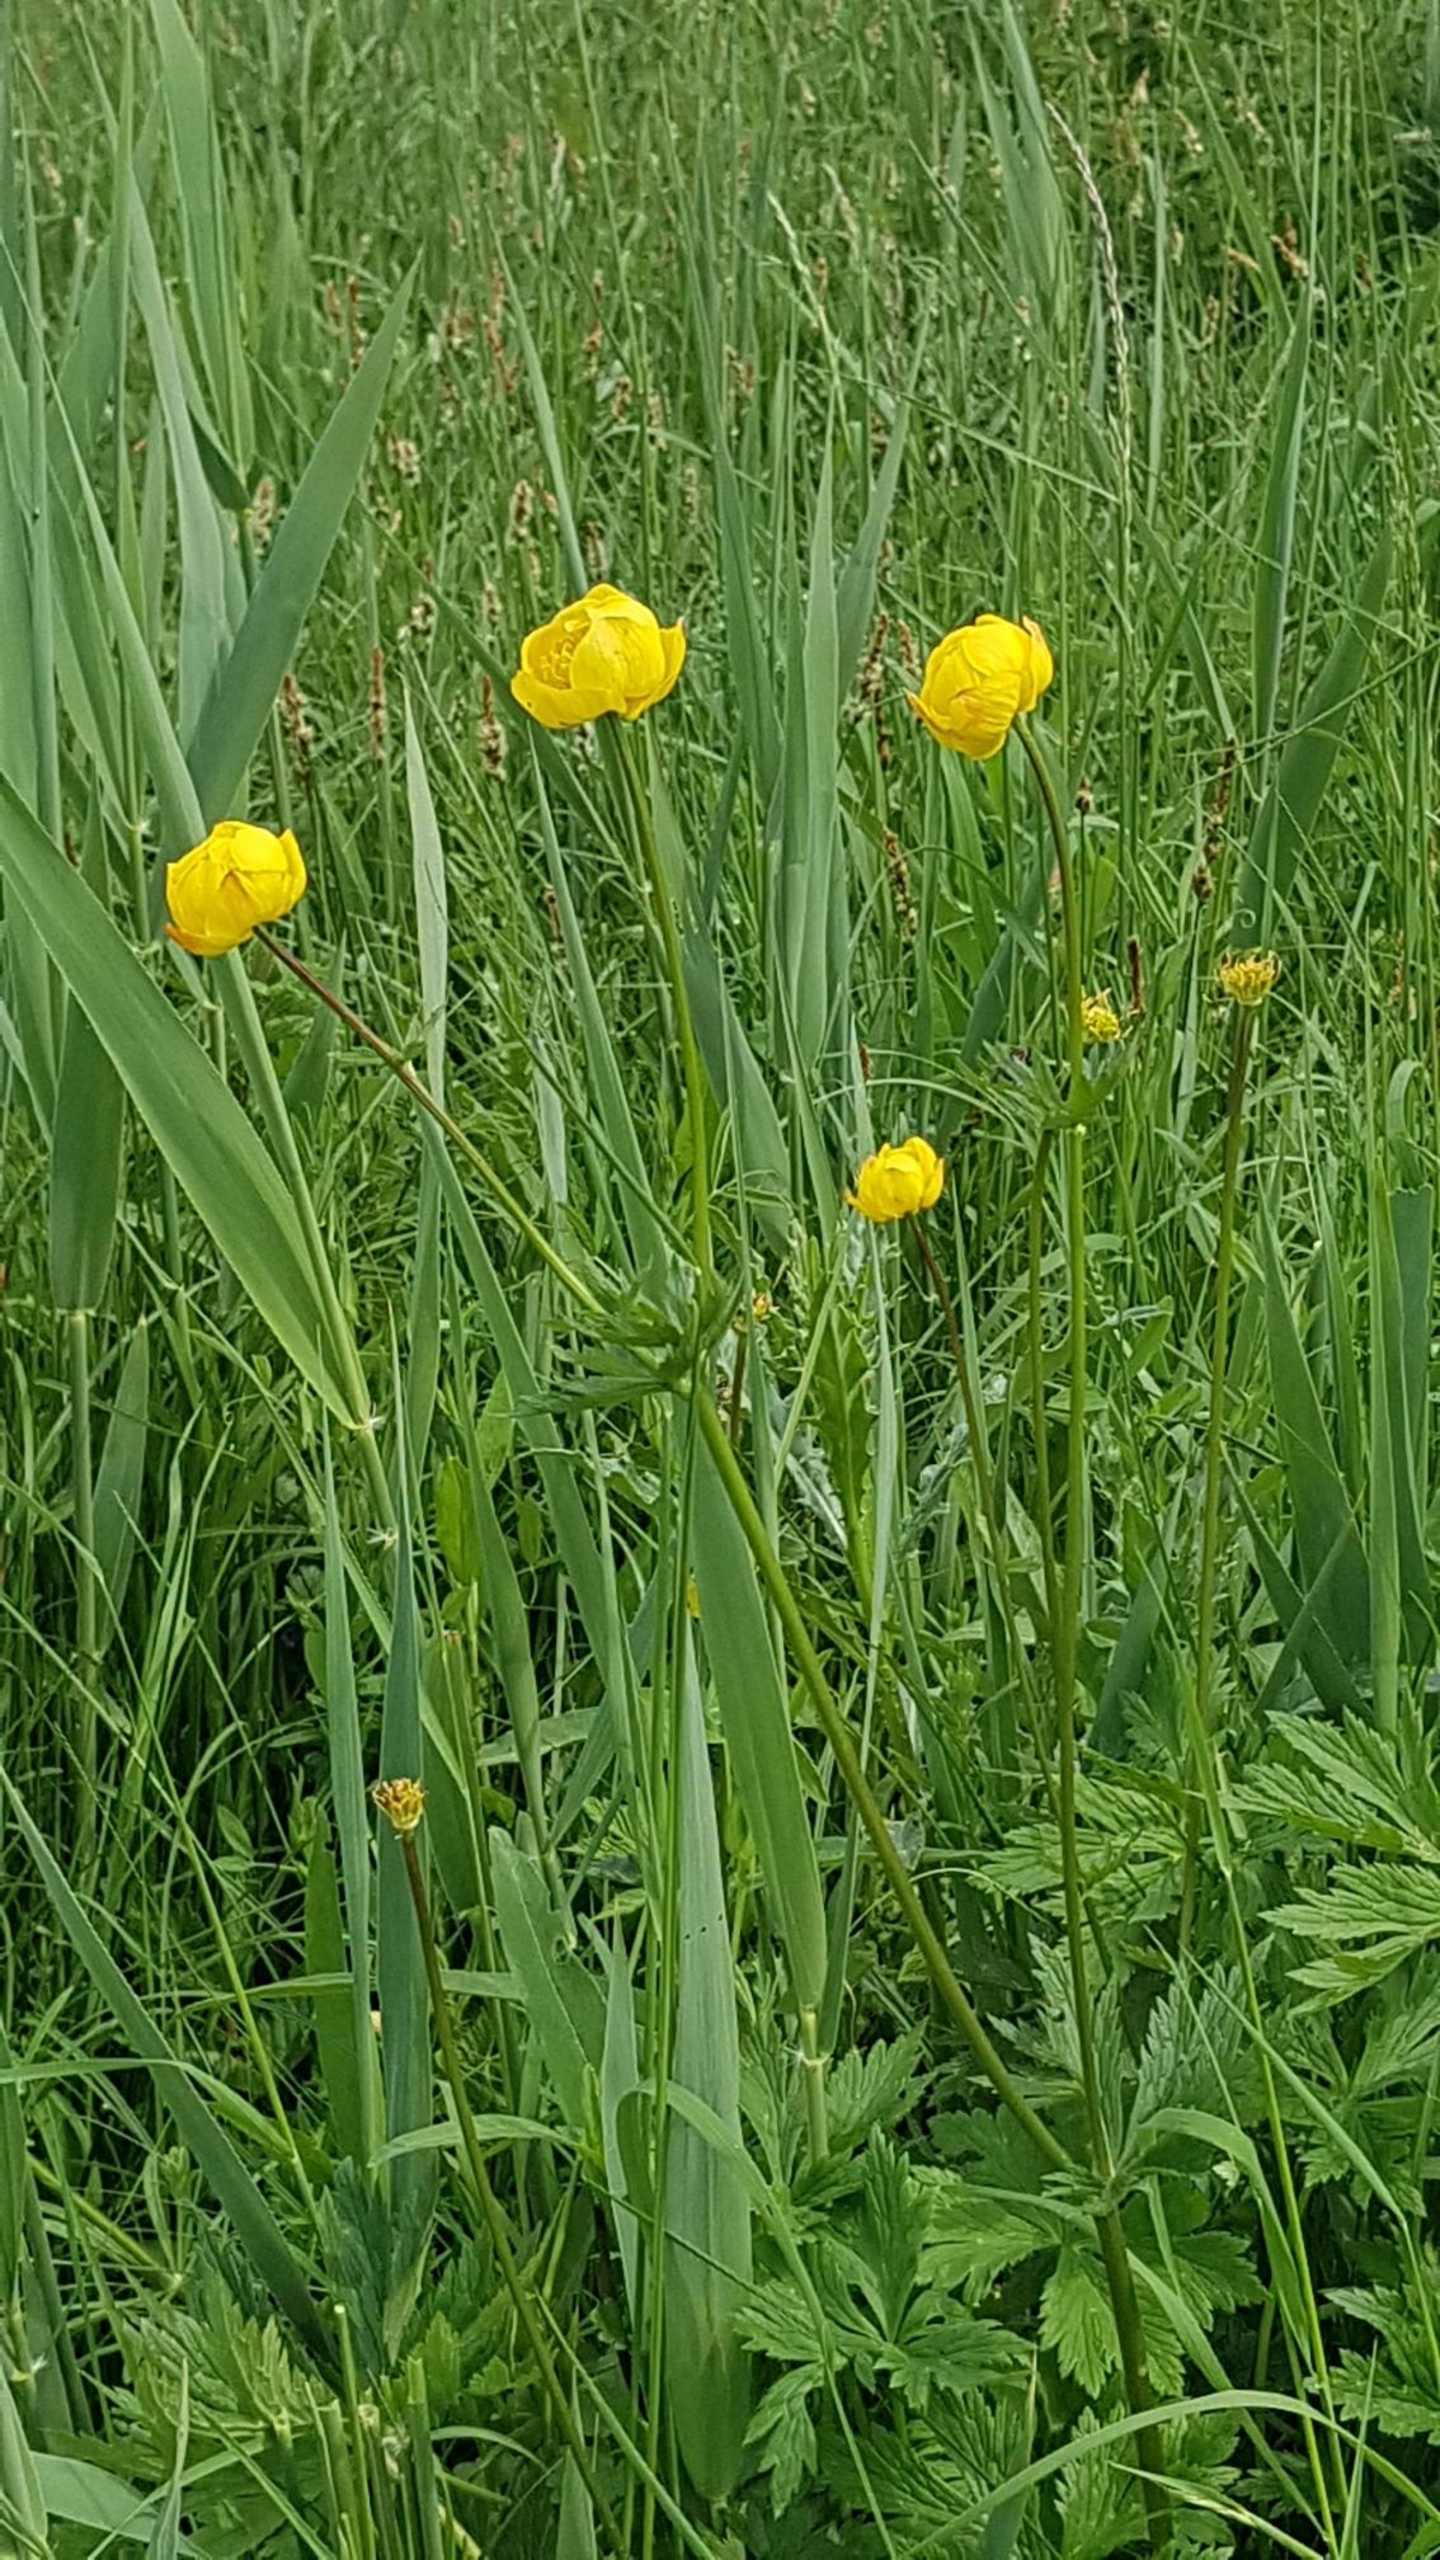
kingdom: Plantae
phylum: Tracheophyta
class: Magnoliopsida
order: Ranunculales
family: Ranunculaceae
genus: Trollius
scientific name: Trollius europaeus
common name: Engblomme
